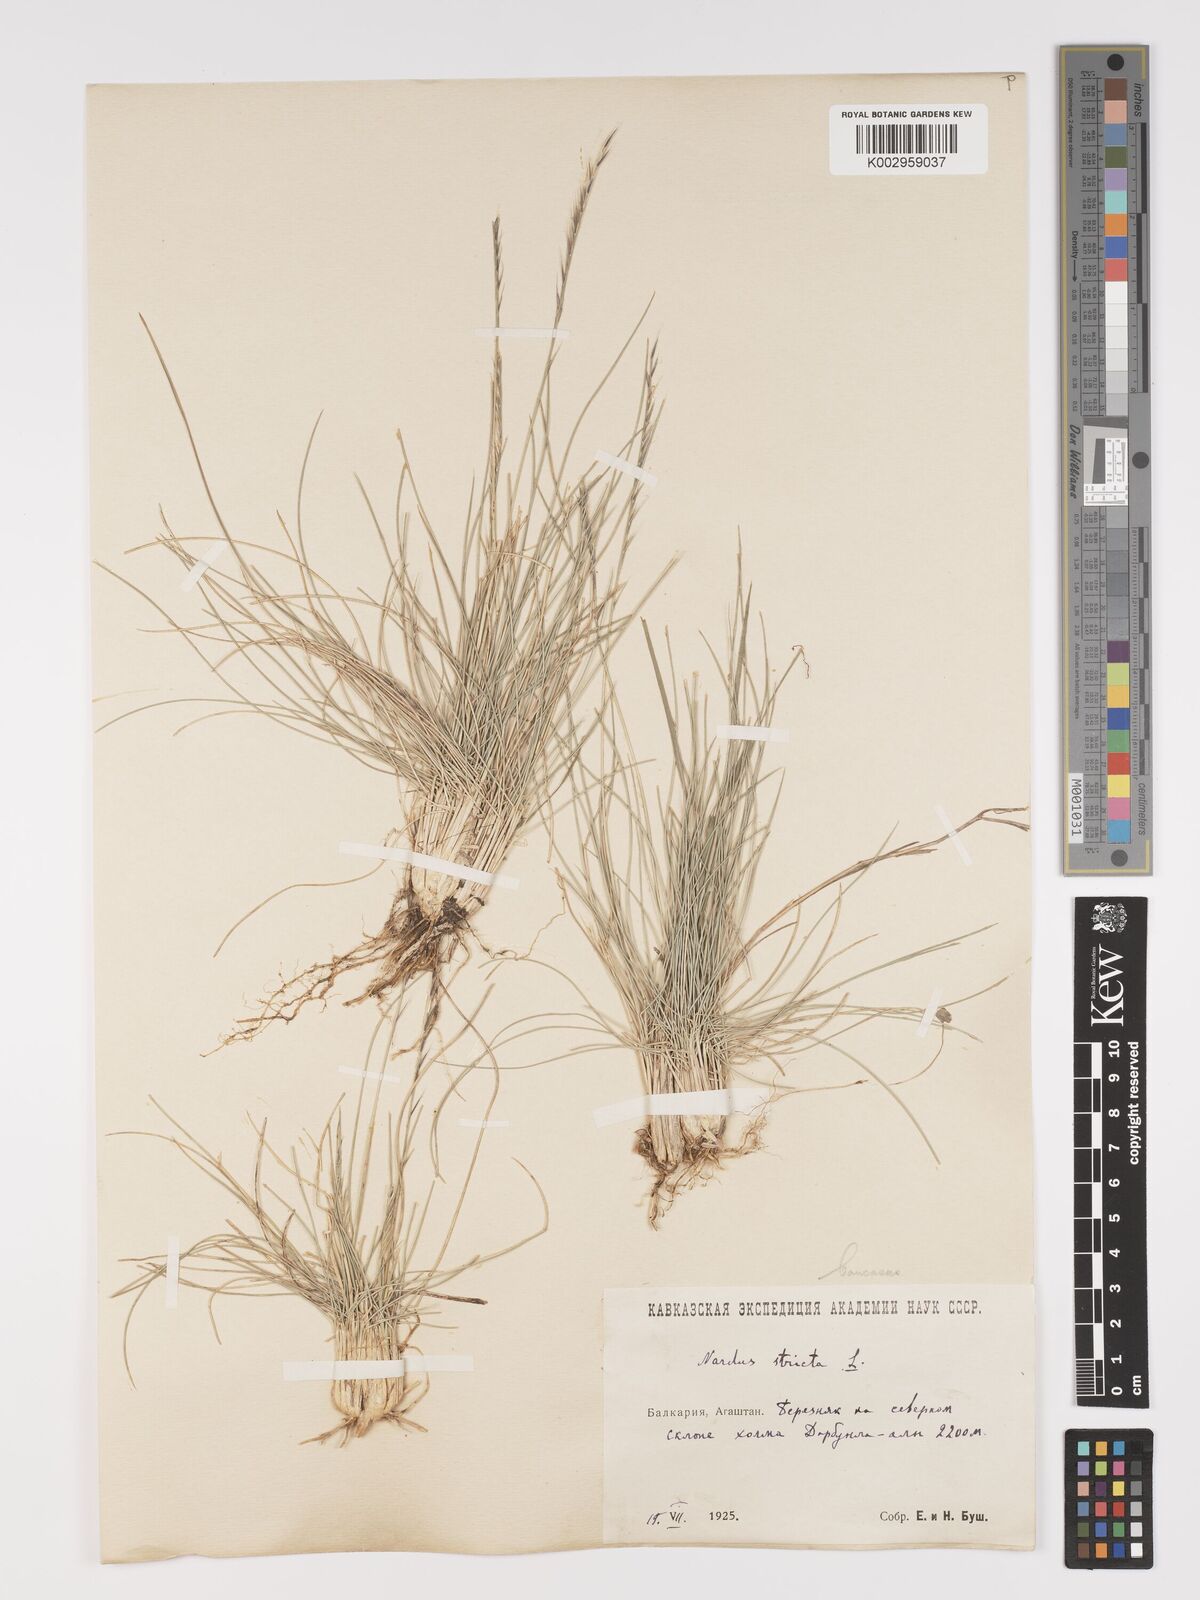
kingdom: Plantae
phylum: Tracheophyta
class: Liliopsida
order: Poales
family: Poaceae
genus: Nardus
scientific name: Nardus stricta
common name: Mat-grass
